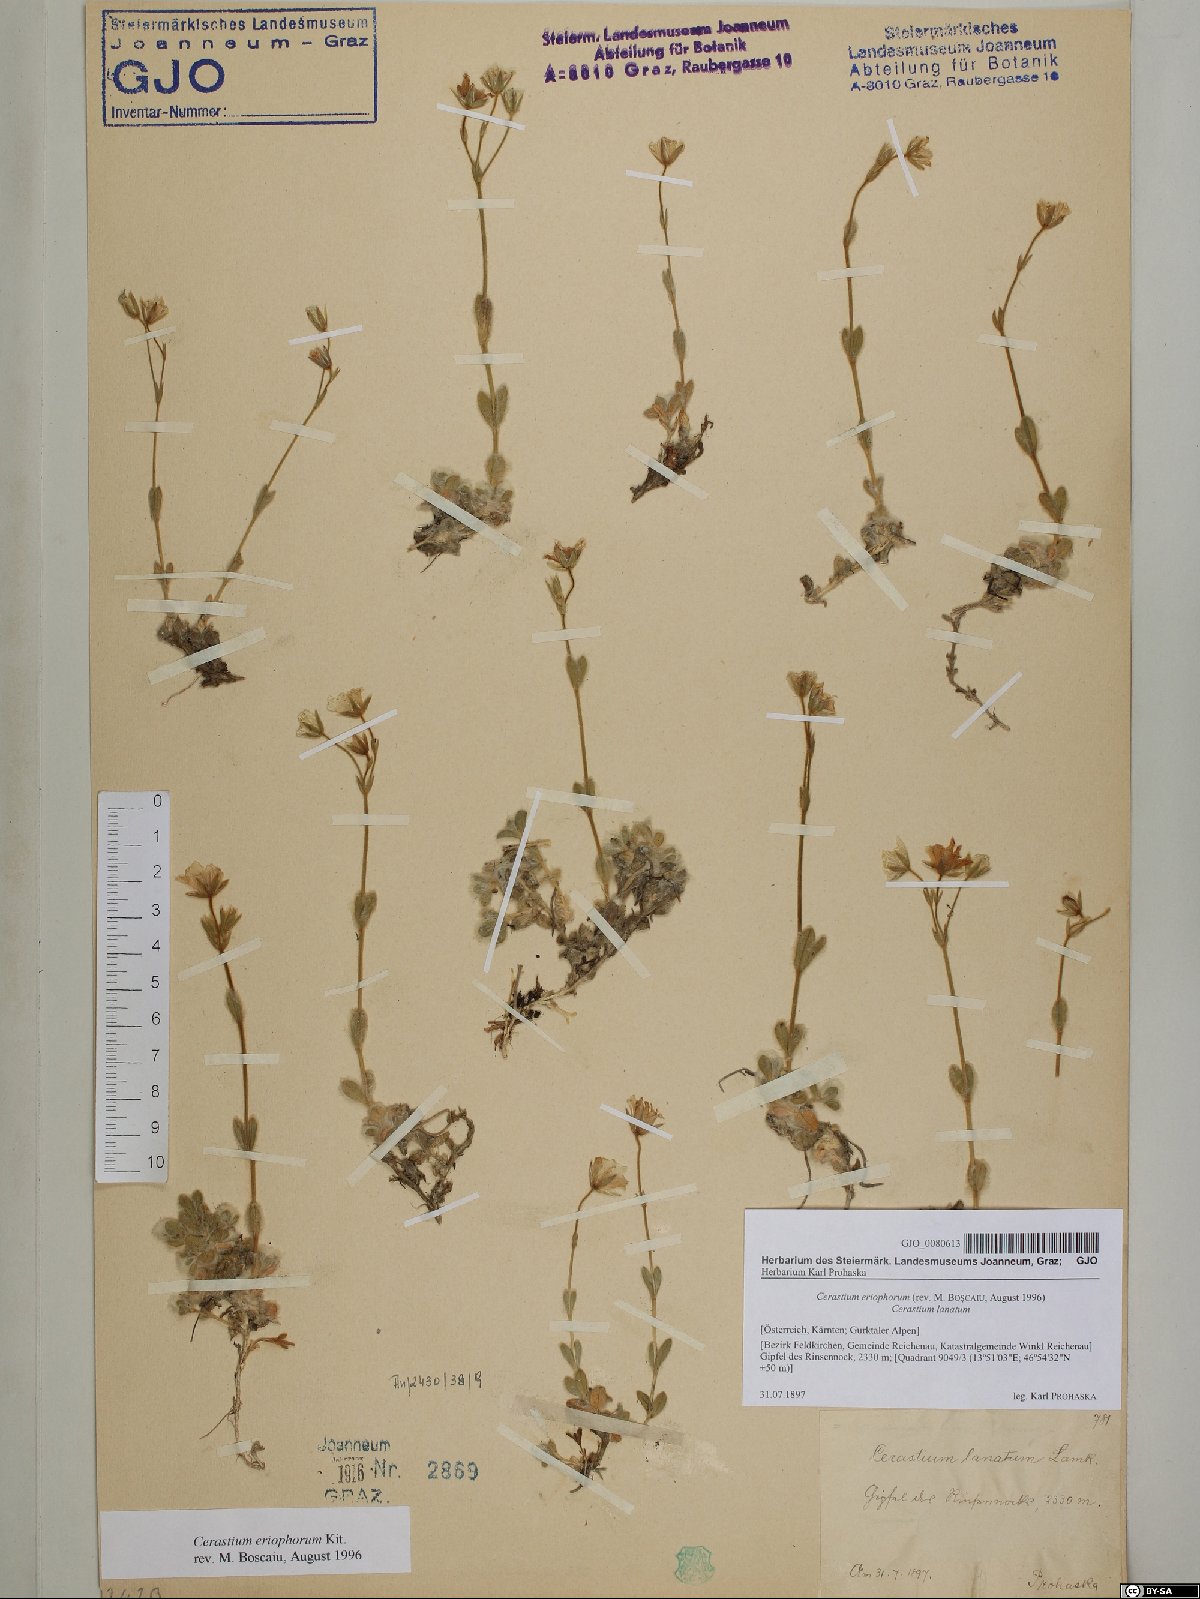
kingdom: Plantae
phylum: Tracheophyta
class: Magnoliopsida
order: Caryophyllales
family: Caryophyllaceae
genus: Cerastium
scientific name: Cerastium eriophorum
